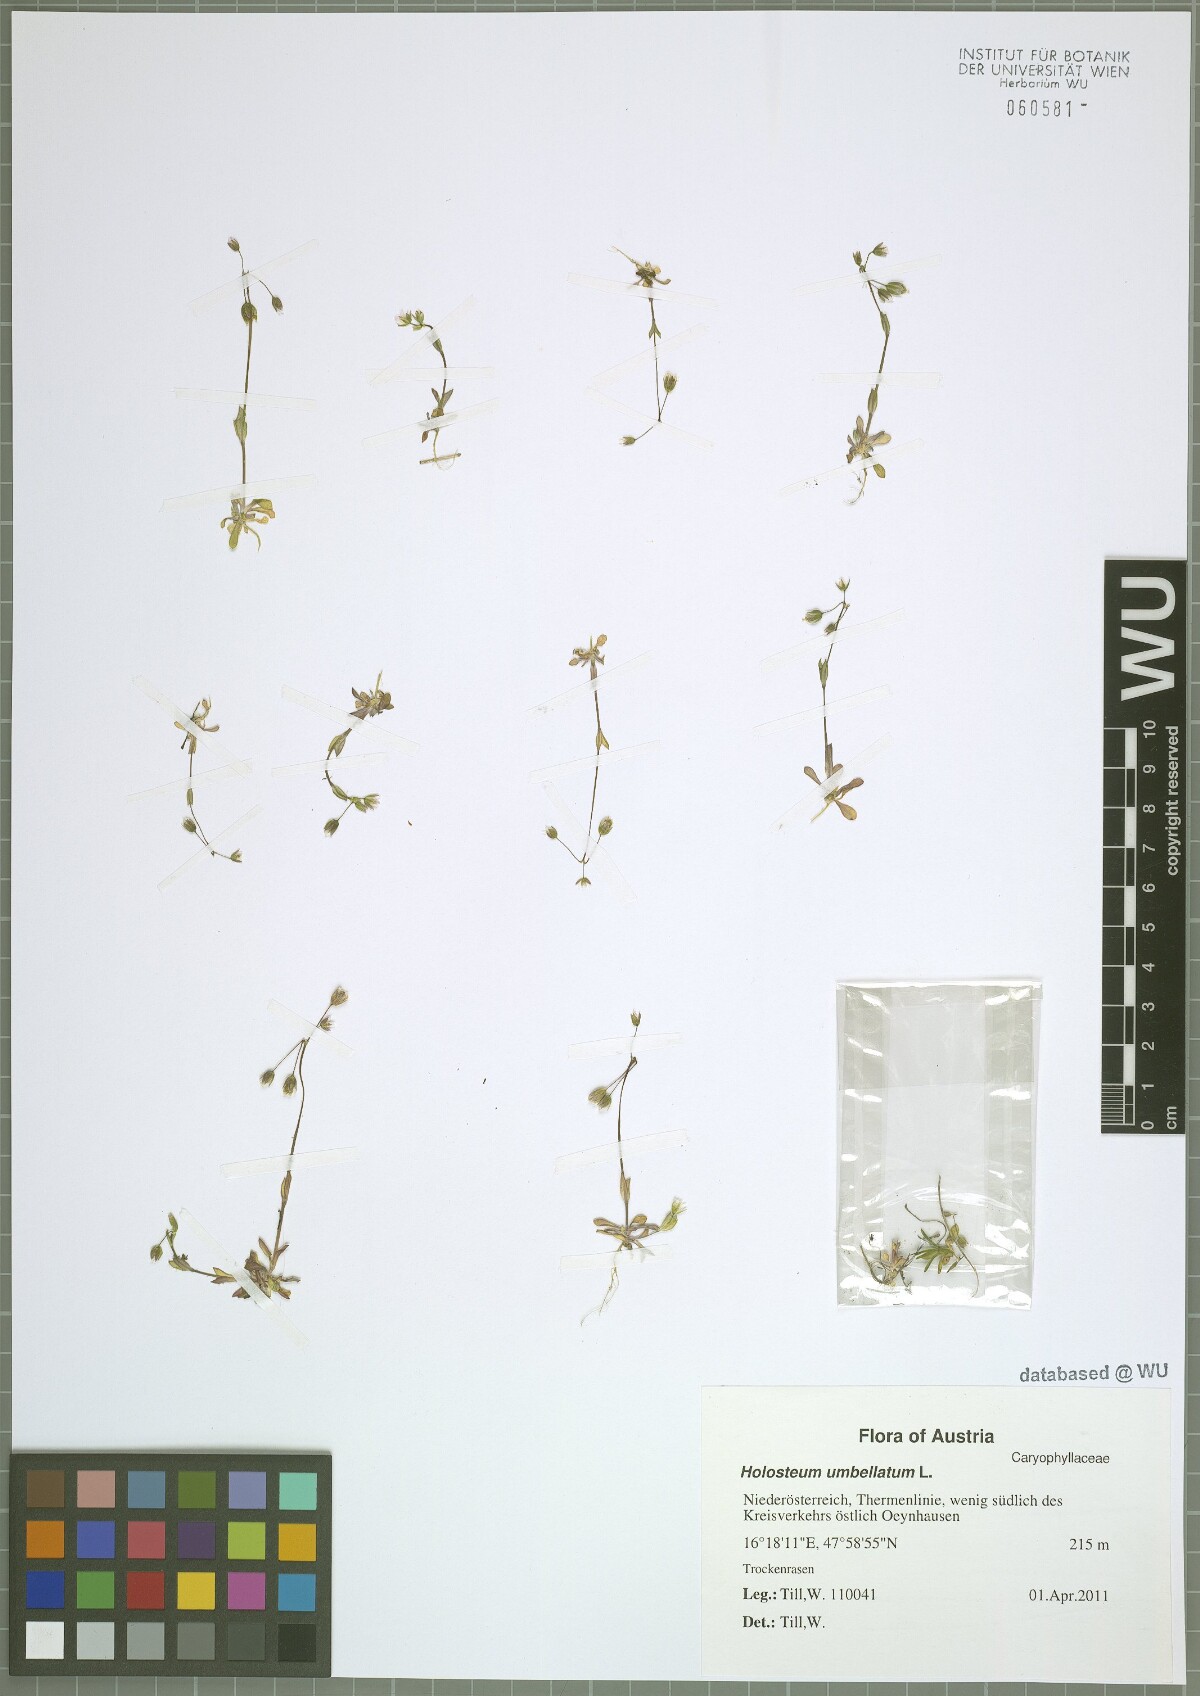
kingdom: Plantae
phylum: Tracheophyta
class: Magnoliopsida
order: Caryophyllales
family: Caryophyllaceae
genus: Holosteum
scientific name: Holosteum umbellatum
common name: Jagged chickweed
